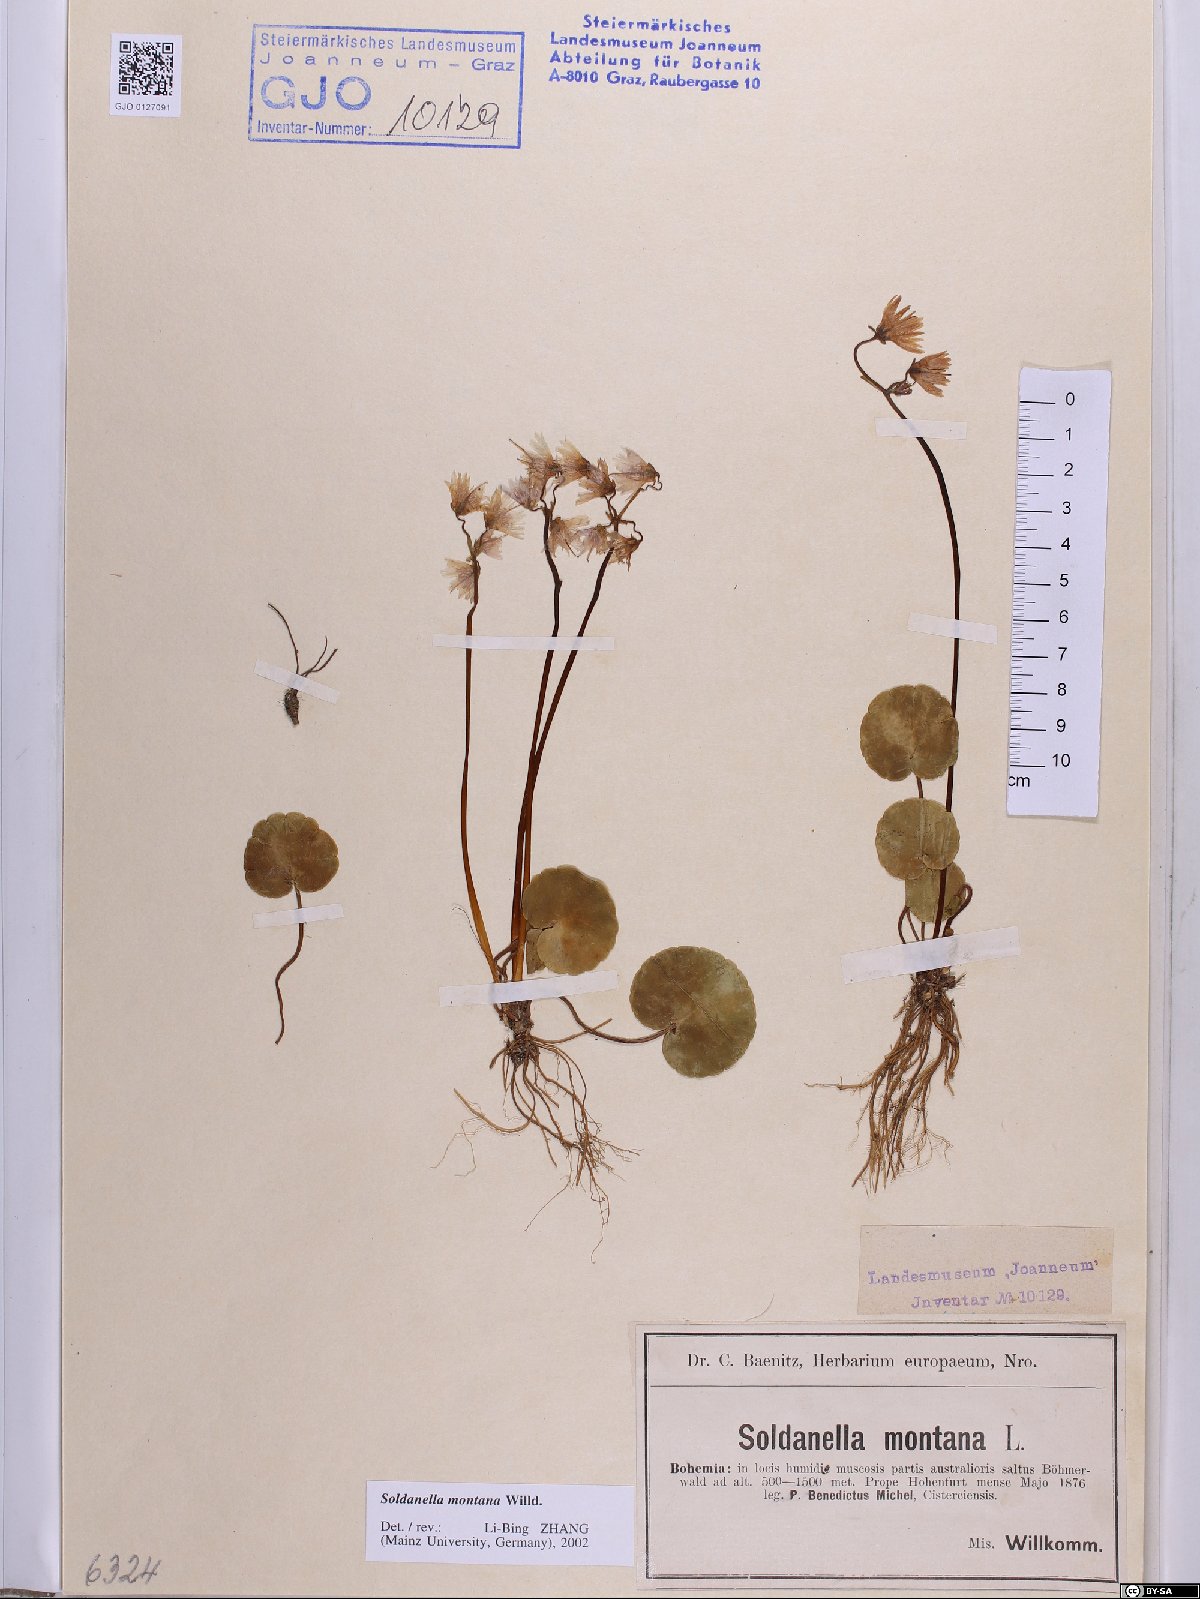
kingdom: Plantae
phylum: Tracheophyta
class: Magnoliopsida
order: Ericales
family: Primulaceae
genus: Soldanella
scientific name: Soldanella montana
